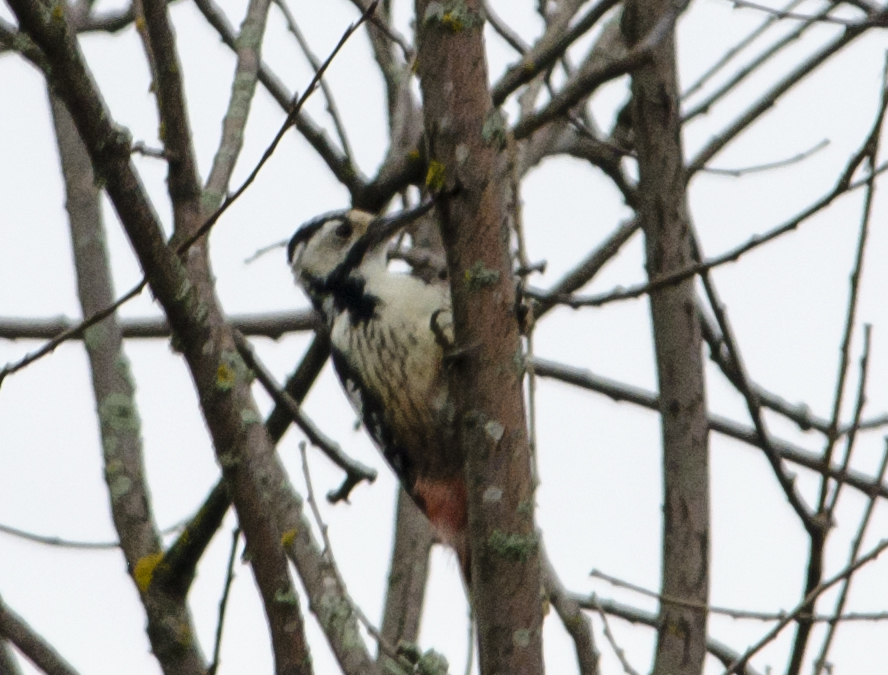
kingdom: Animalia
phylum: Chordata
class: Aves
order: Piciformes
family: Picidae
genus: Dendrocopos
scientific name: Dendrocopos leucotos
